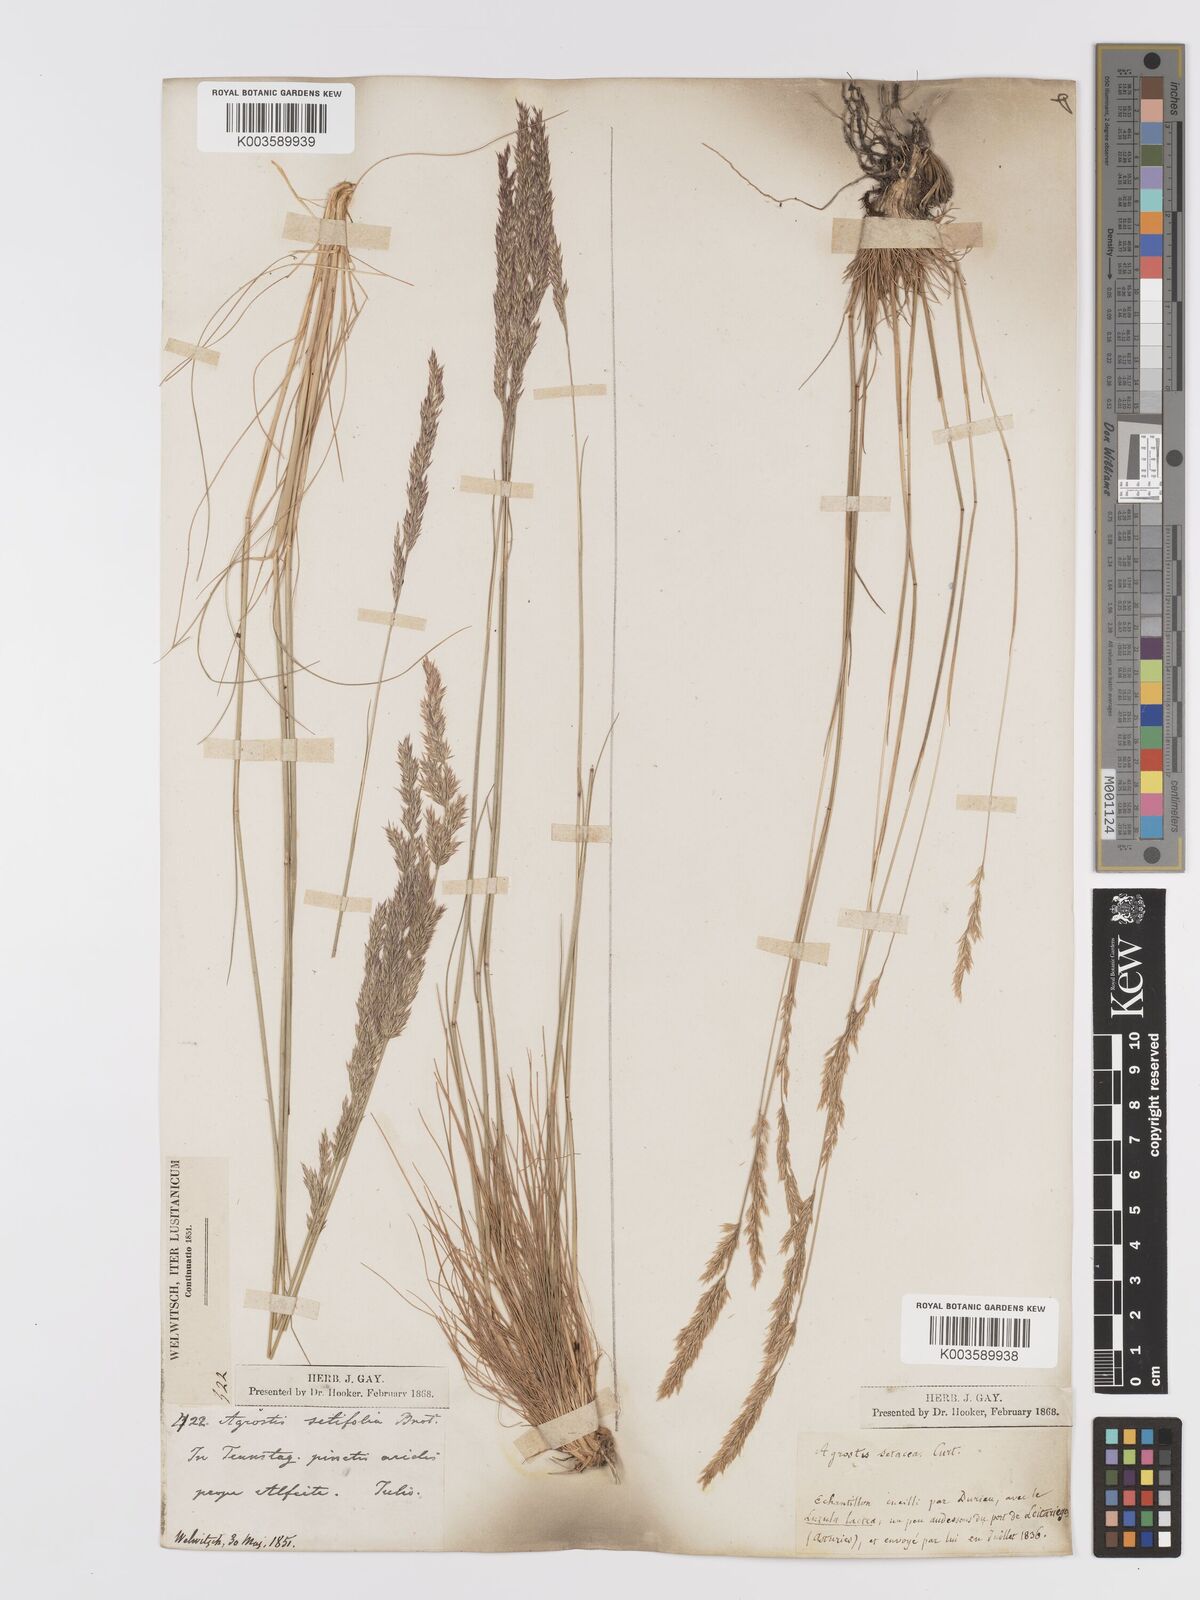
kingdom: Plantae
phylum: Tracheophyta
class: Liliopsida
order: Poales
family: Poaceae
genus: Alpagrostis
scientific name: Alpagrostis setacea
